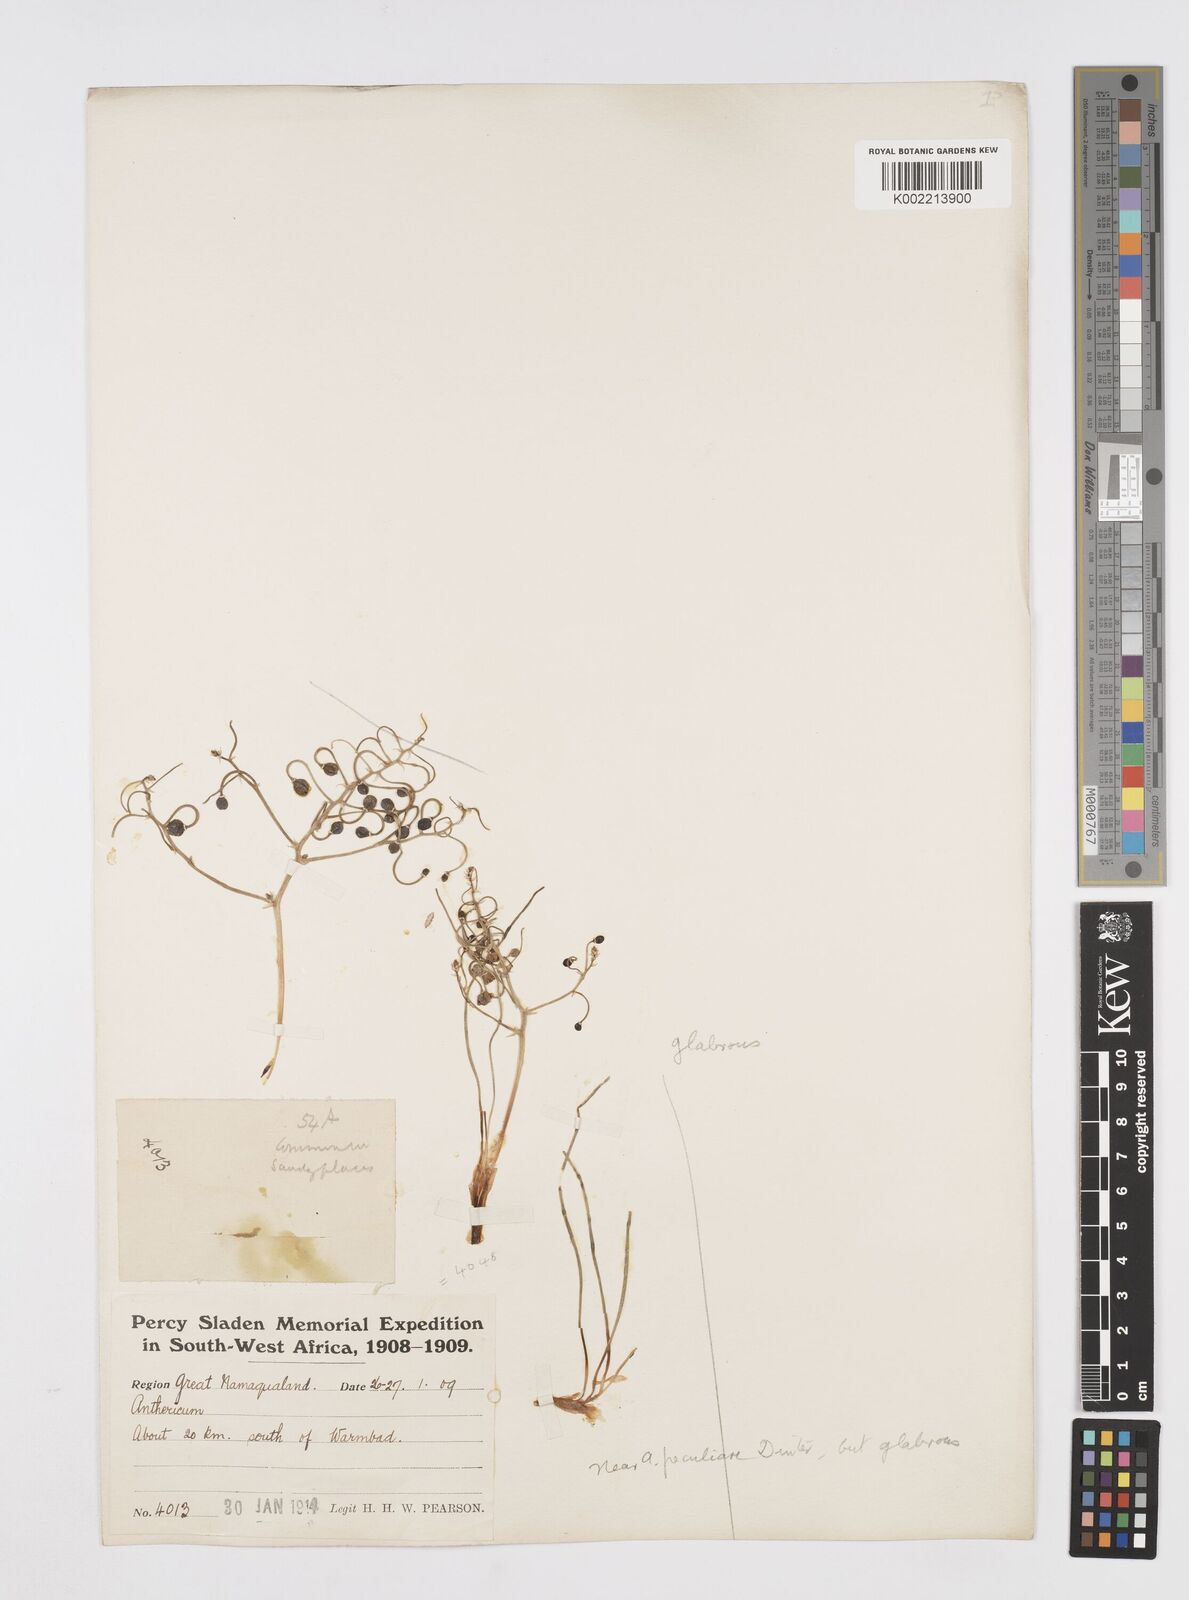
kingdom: Plantae
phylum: Tracheophyta
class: Liliopsida
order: Asparagales
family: Asphodelaceae
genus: Trachyandra
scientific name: Trachyandra flexifolia
